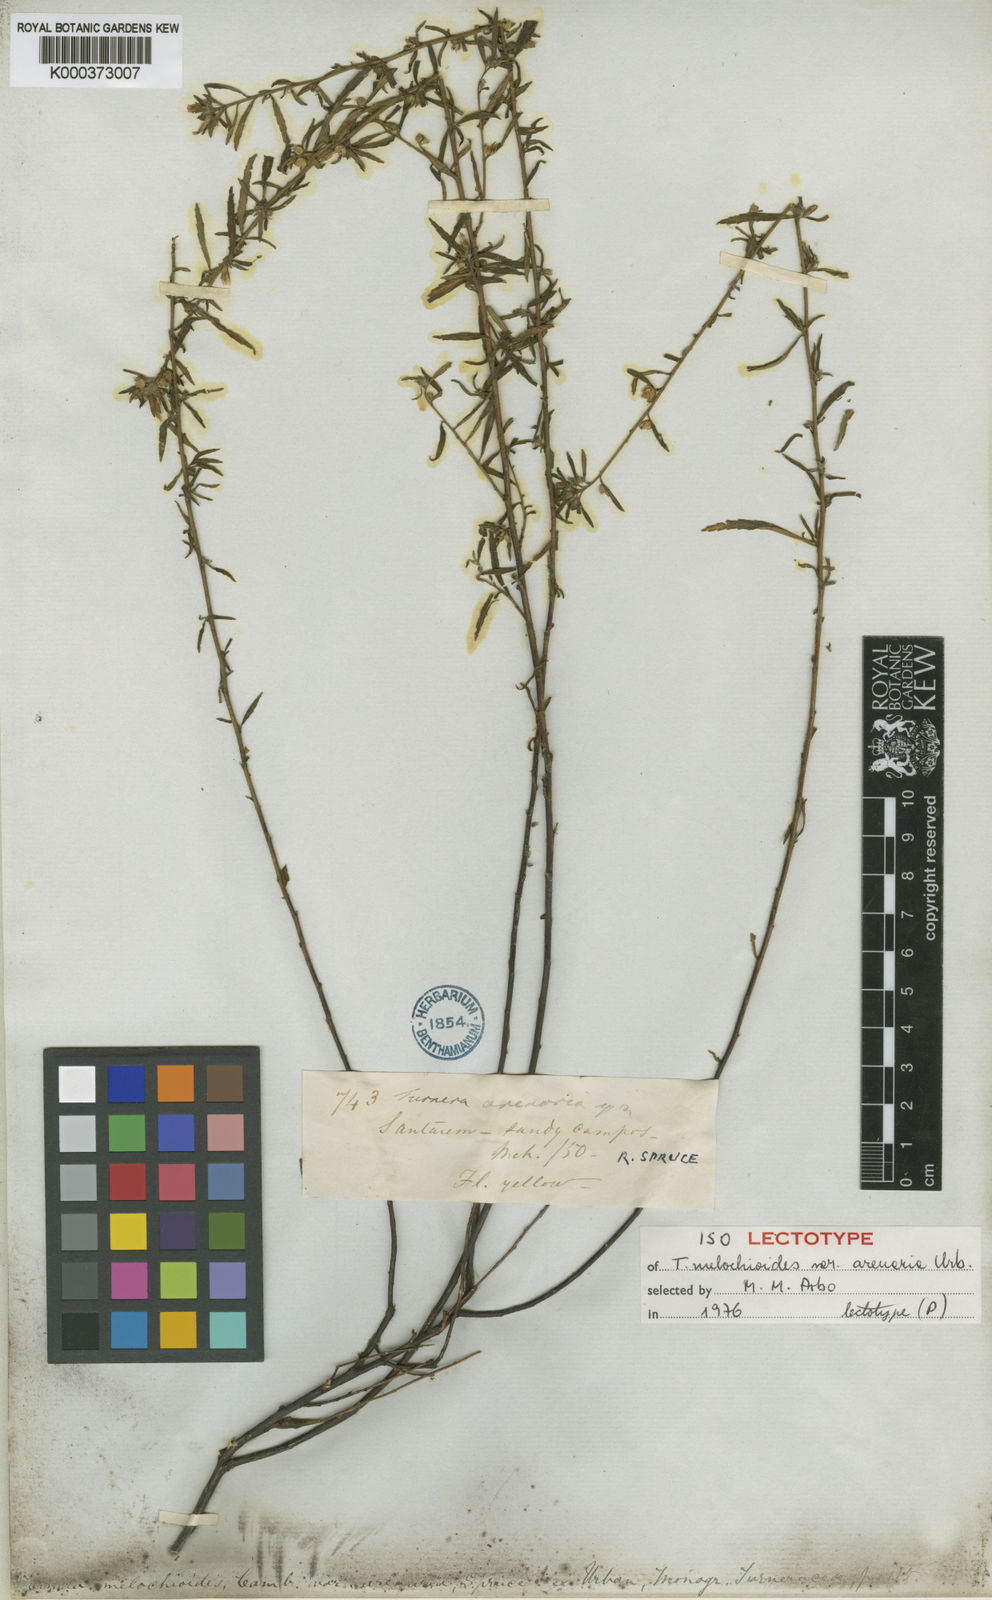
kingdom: Plantae
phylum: Tracheophyta
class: Magnoliopsida
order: Malpighiales
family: Turneraceae
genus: Turnera
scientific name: Turnera arenaria
